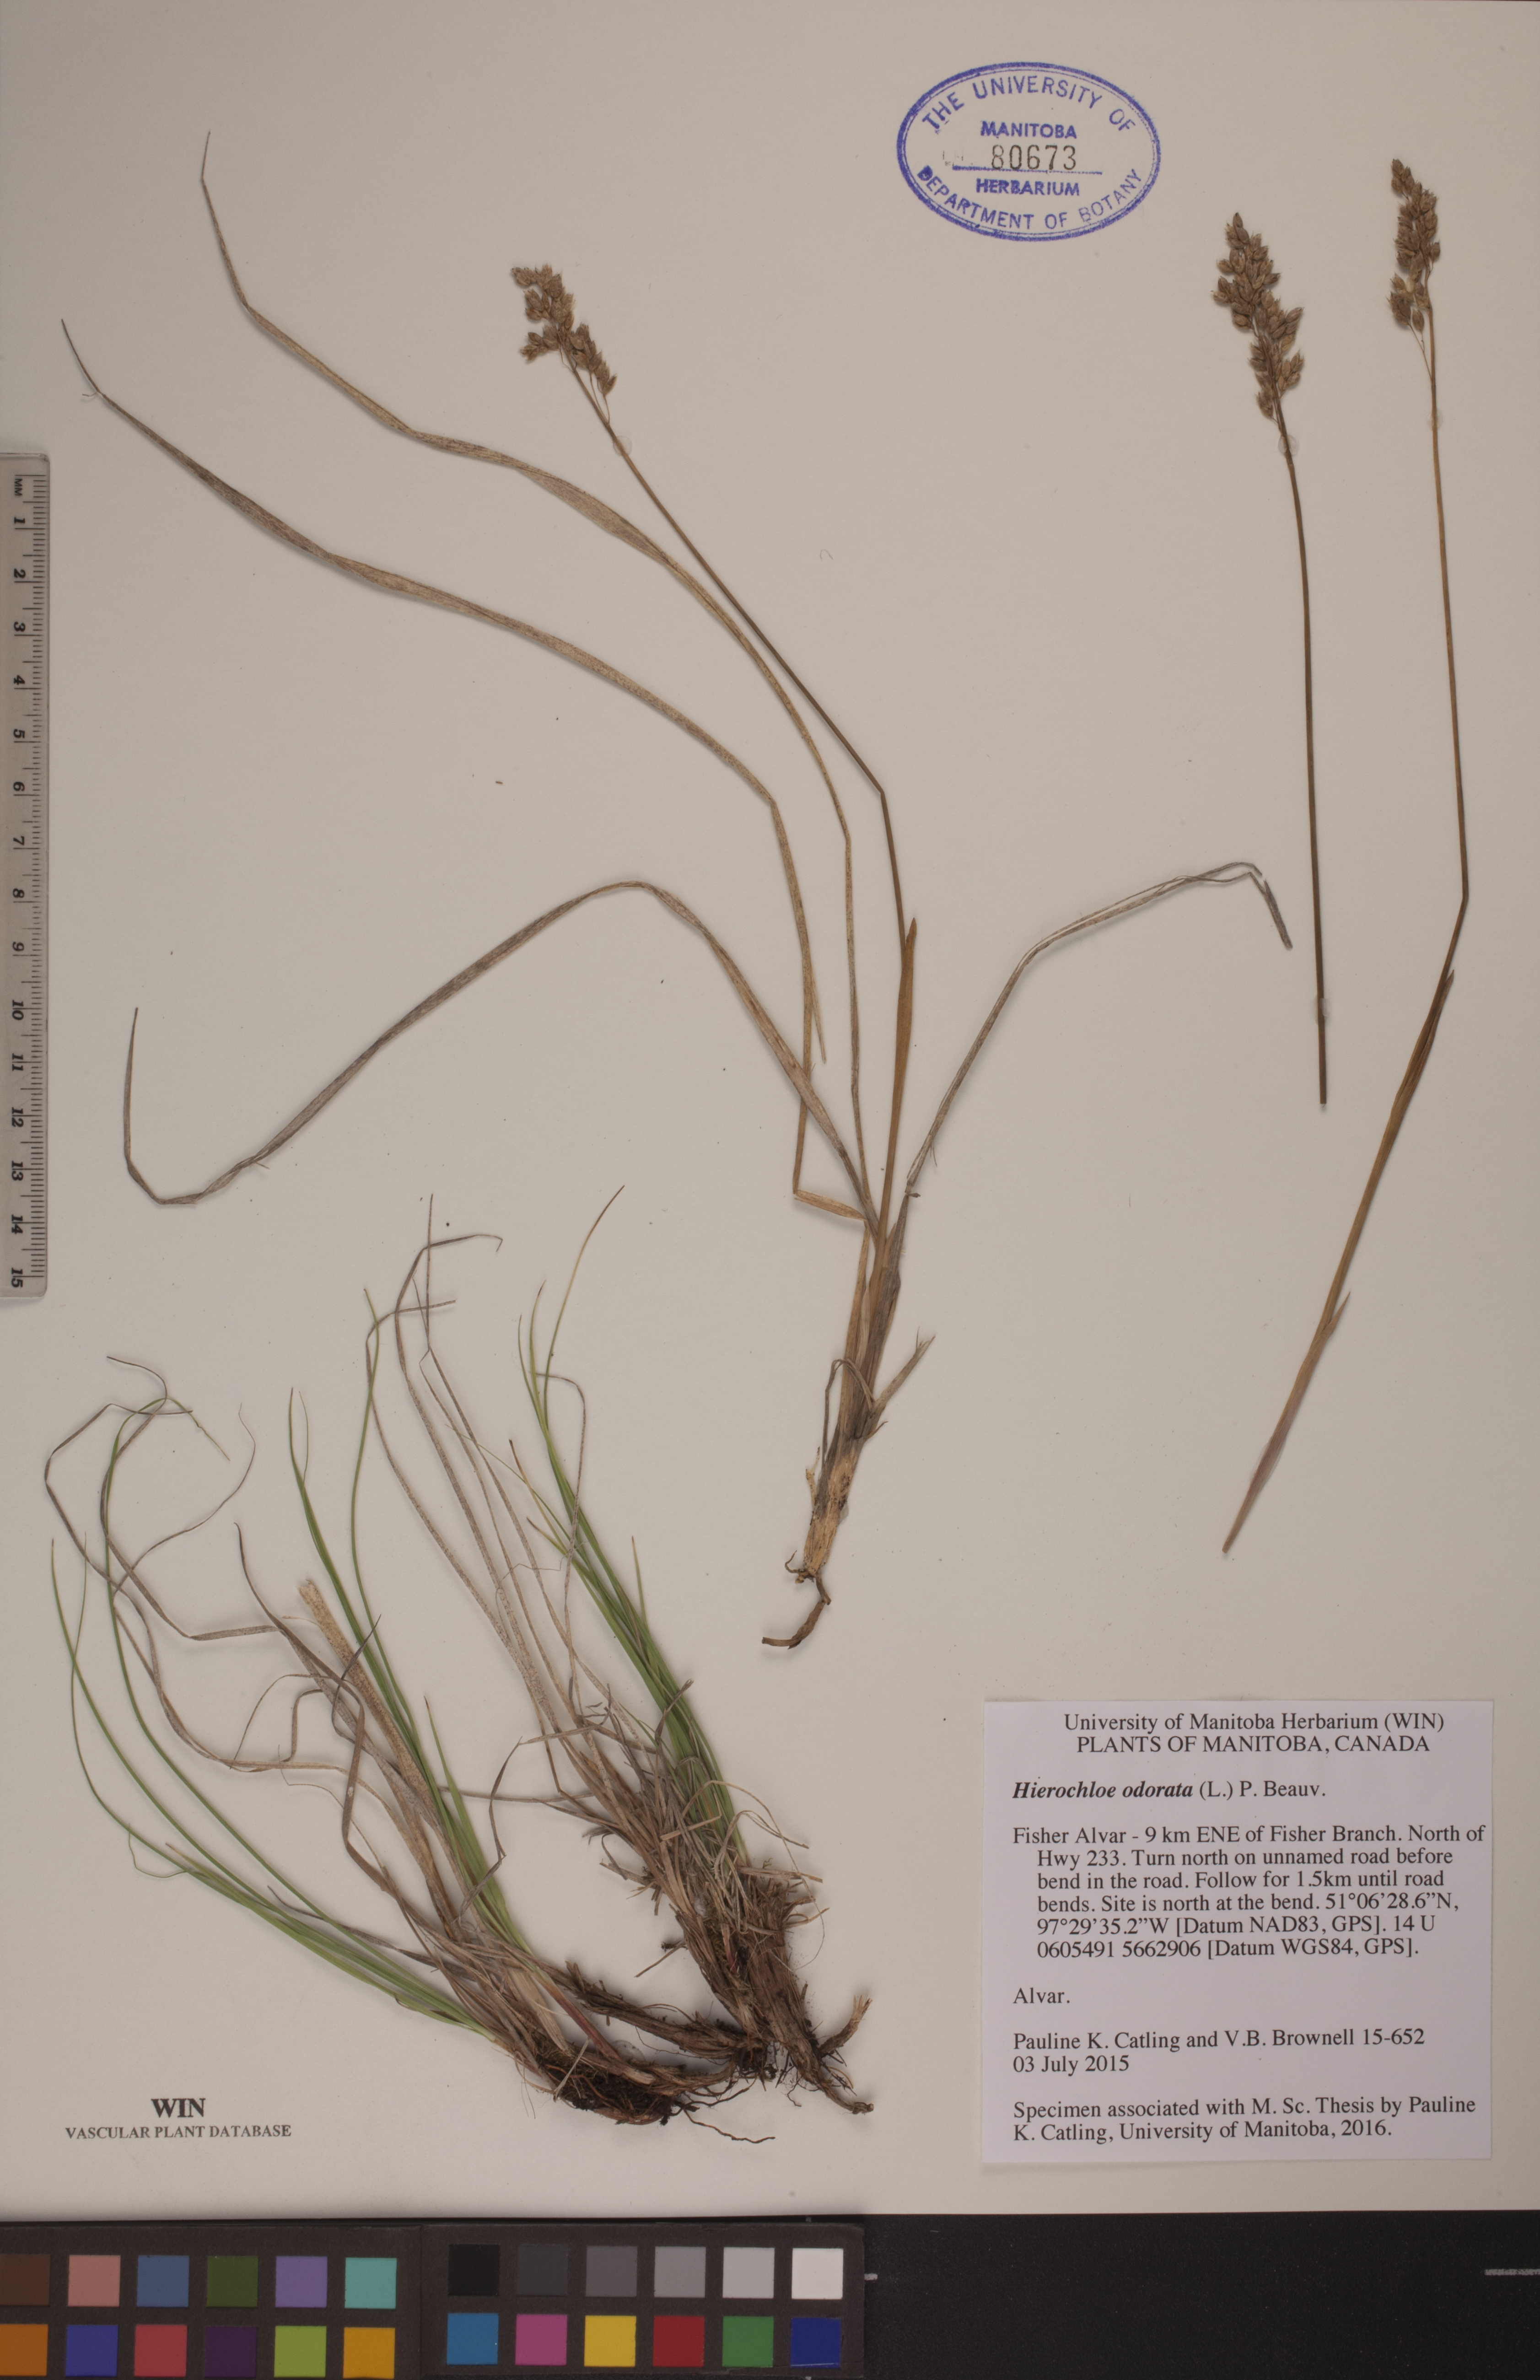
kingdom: Plantae
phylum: Tracheophyta
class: Liliopsida
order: Poales
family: Poaceae
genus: Anthoxanthum
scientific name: Anthoxanthum nitens
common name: Holy grass
